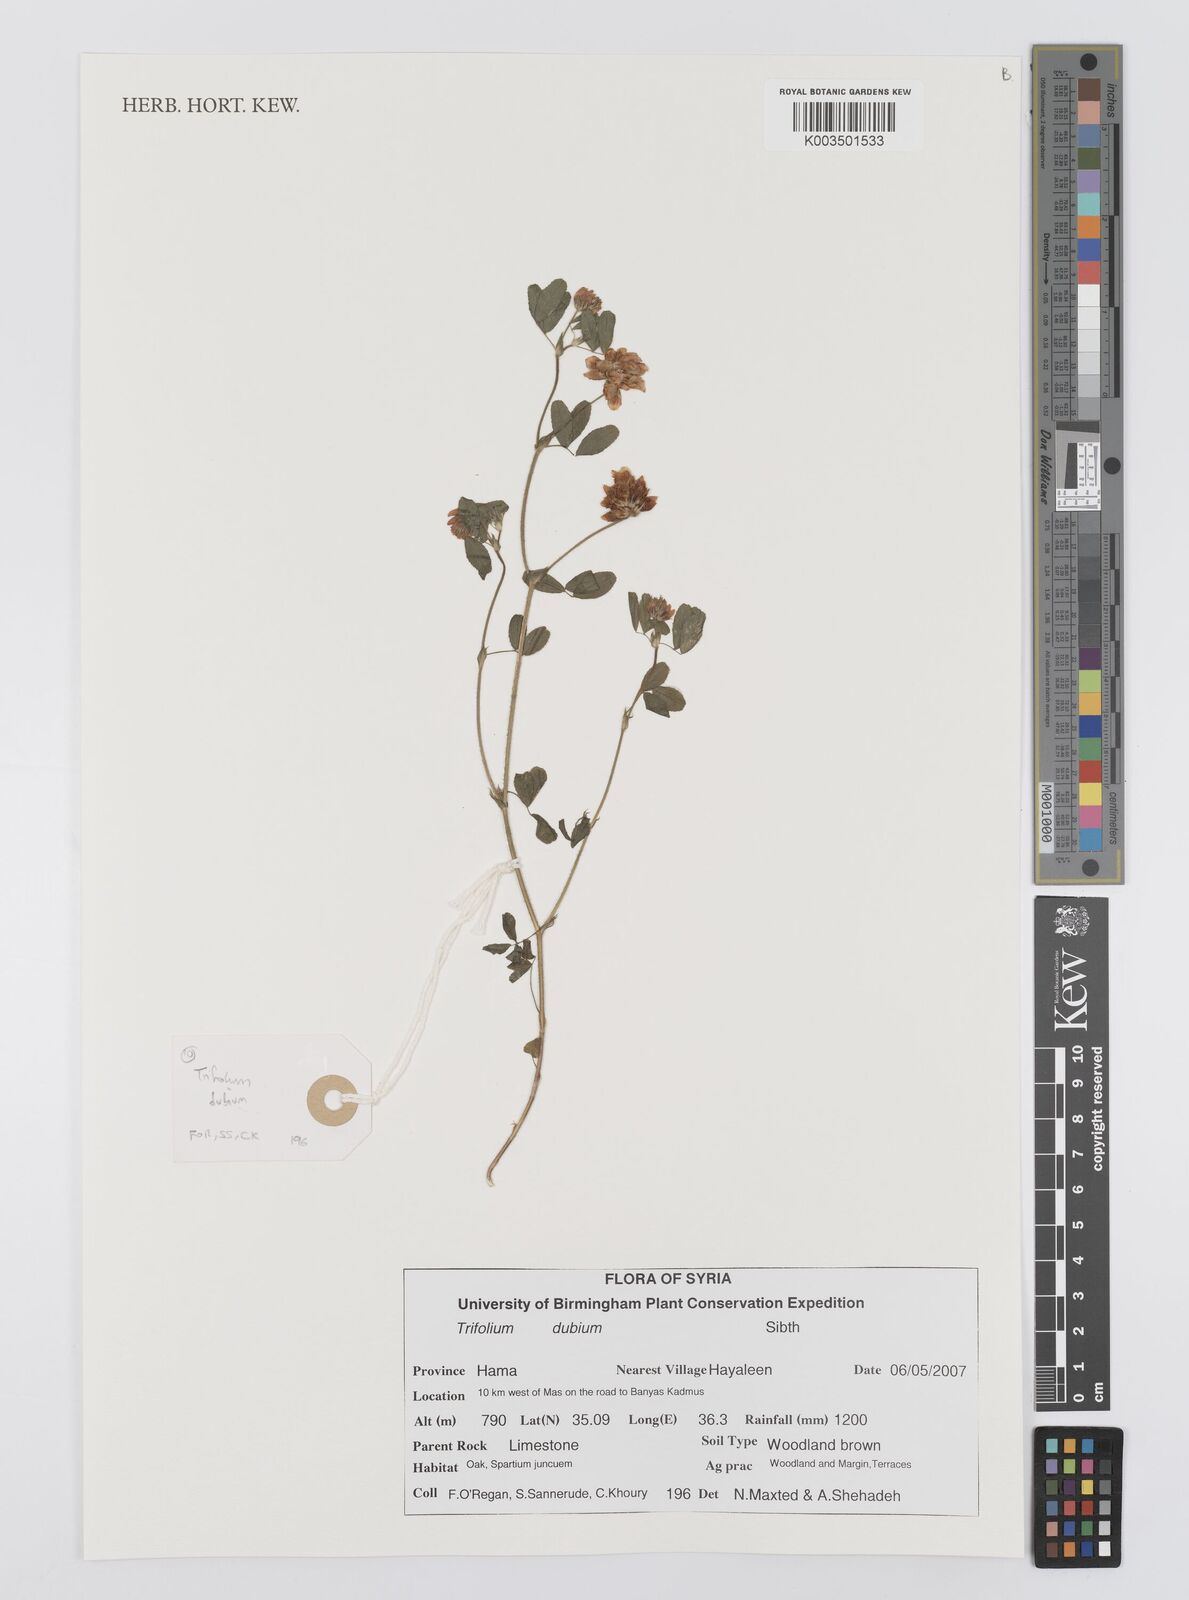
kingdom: Plantae
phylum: Tracheophyta
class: Magnoliopsida
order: Fabales
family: Fabaceae
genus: Trifolium
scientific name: Trifolium dubium
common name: Suckling clover
